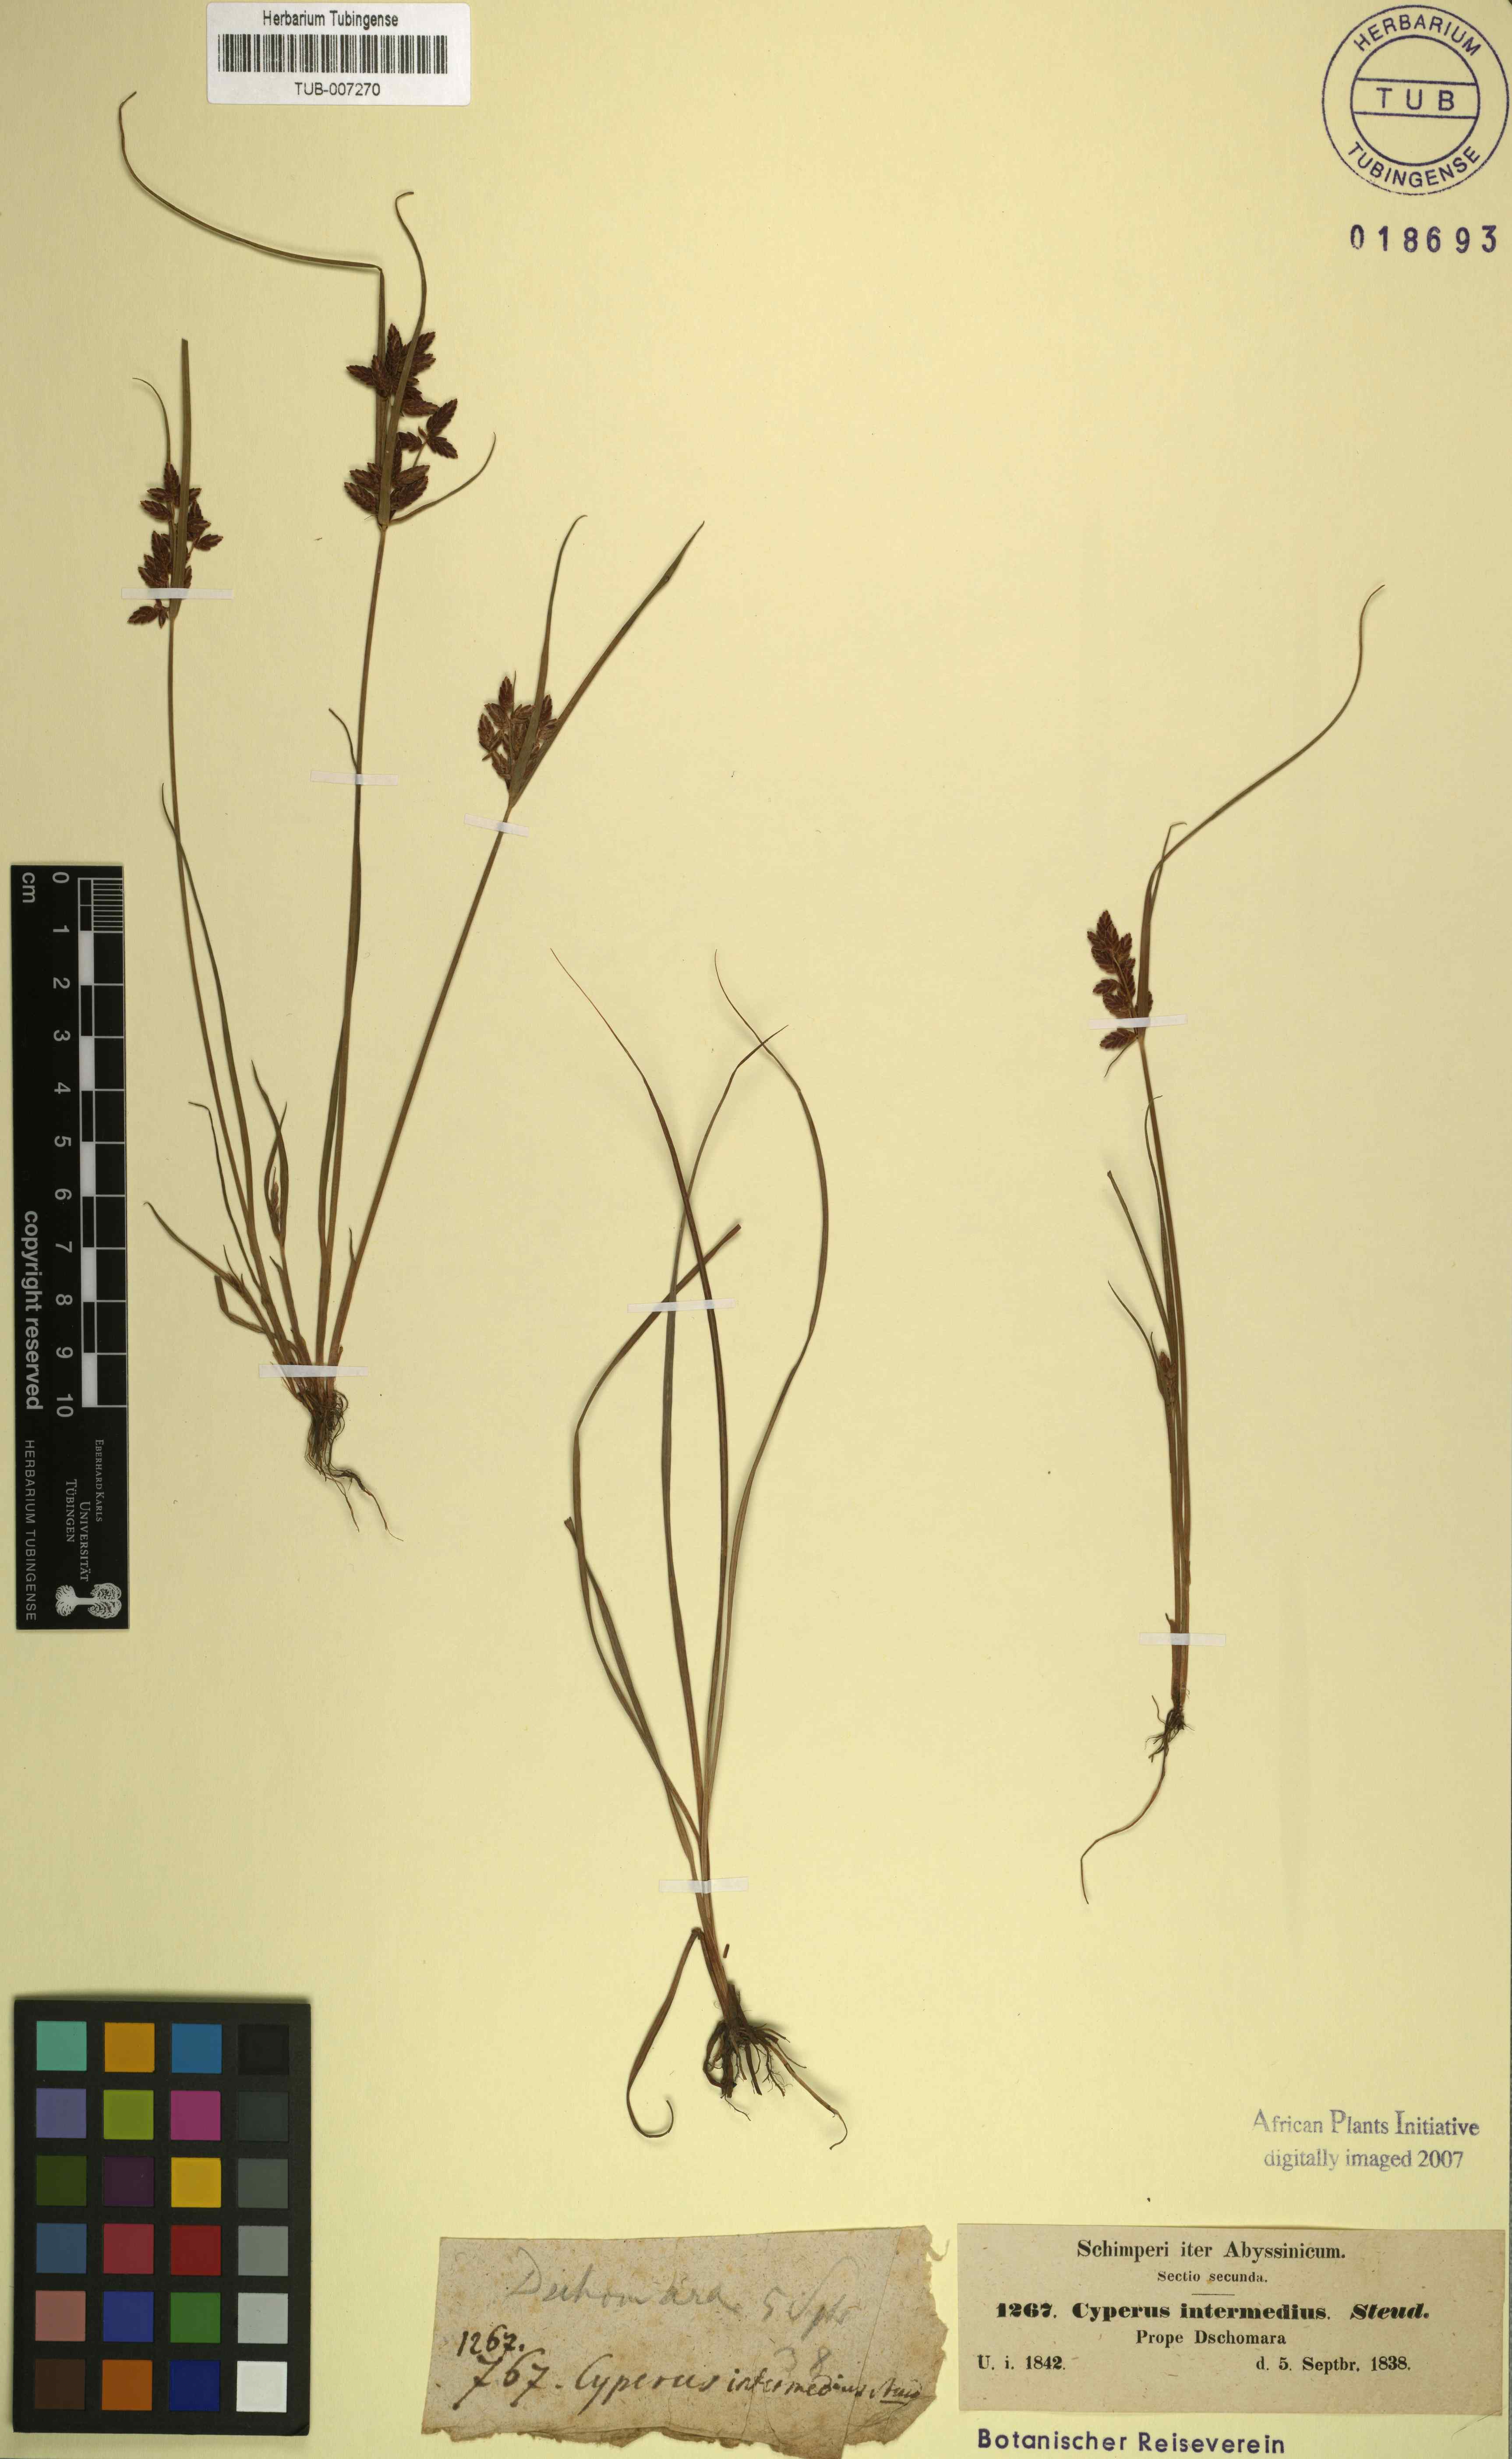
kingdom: Plantae
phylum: Tracheophyta
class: Liliopsida
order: Poales
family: Cyperaceae
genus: Cyperus
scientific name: Cyperus flavescens
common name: Yellow galingale
